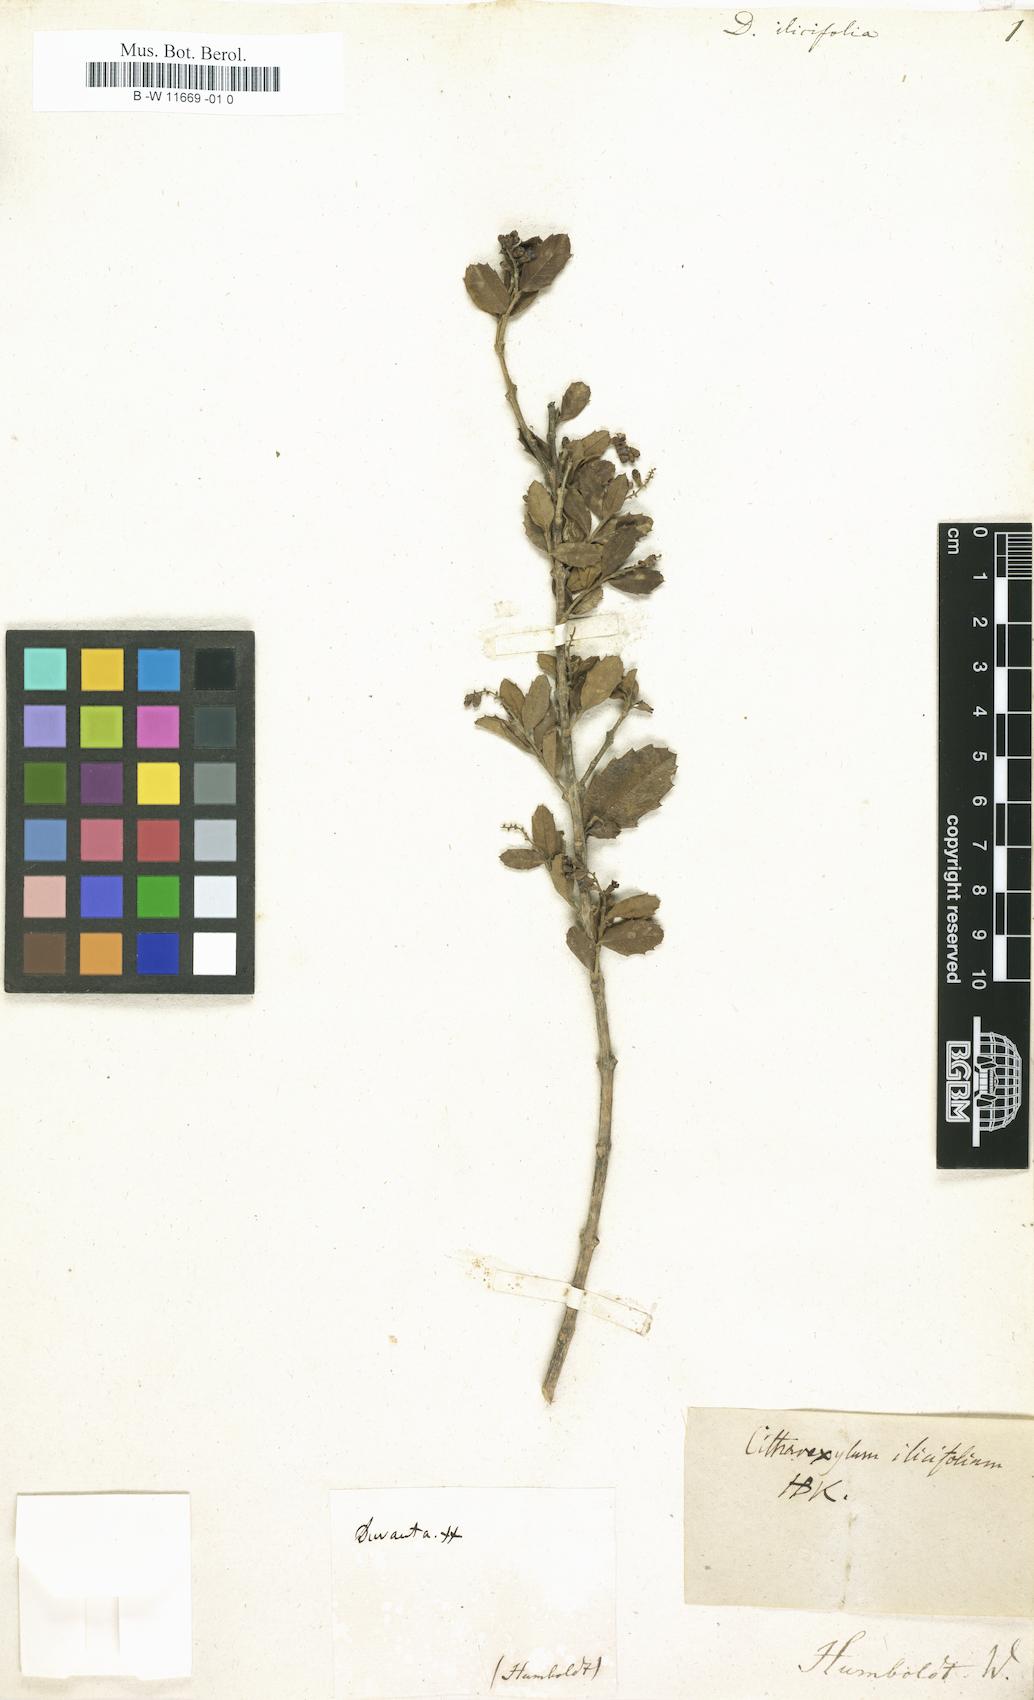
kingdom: Plantae
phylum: Tracheophyta
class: Magnoliopsida
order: Lamiales
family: Verbenaceae
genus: Citharexylum
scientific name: Citharexylum ilicifolium
